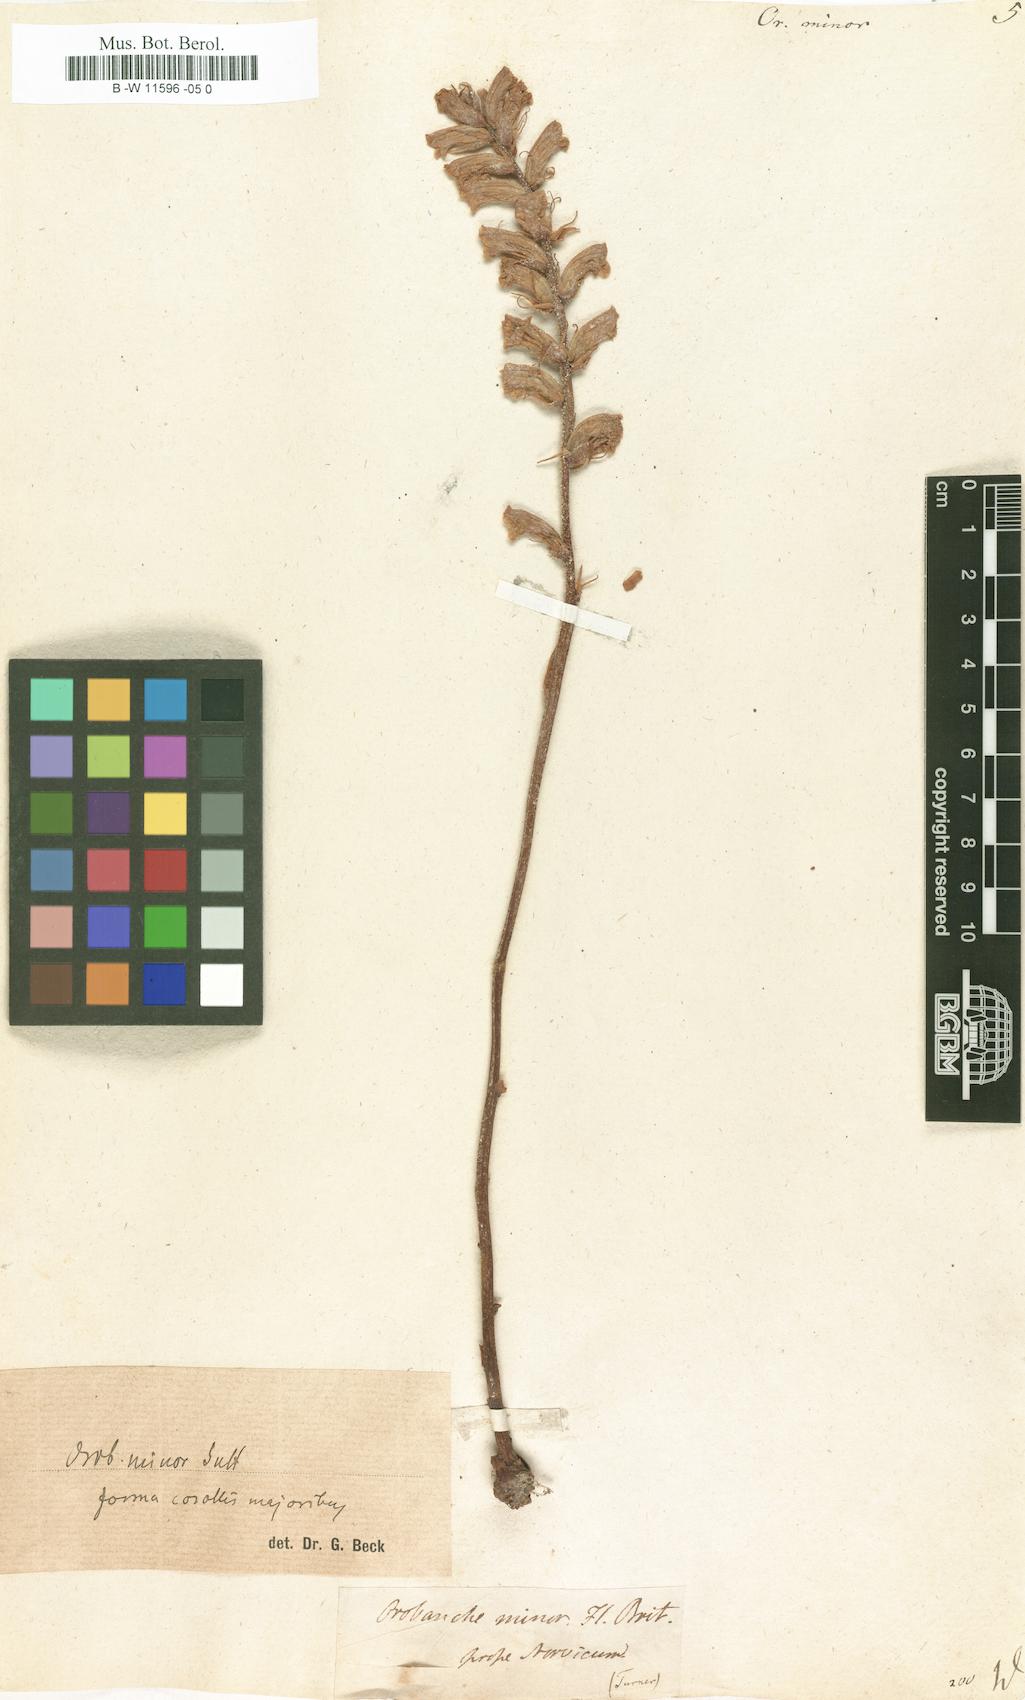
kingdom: Plantae
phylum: Tracheophyta
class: Magnoliopsida
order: Lamiales
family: Orobanchaceae
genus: Orobanche
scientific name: Orobanche minor
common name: Common broomrape
